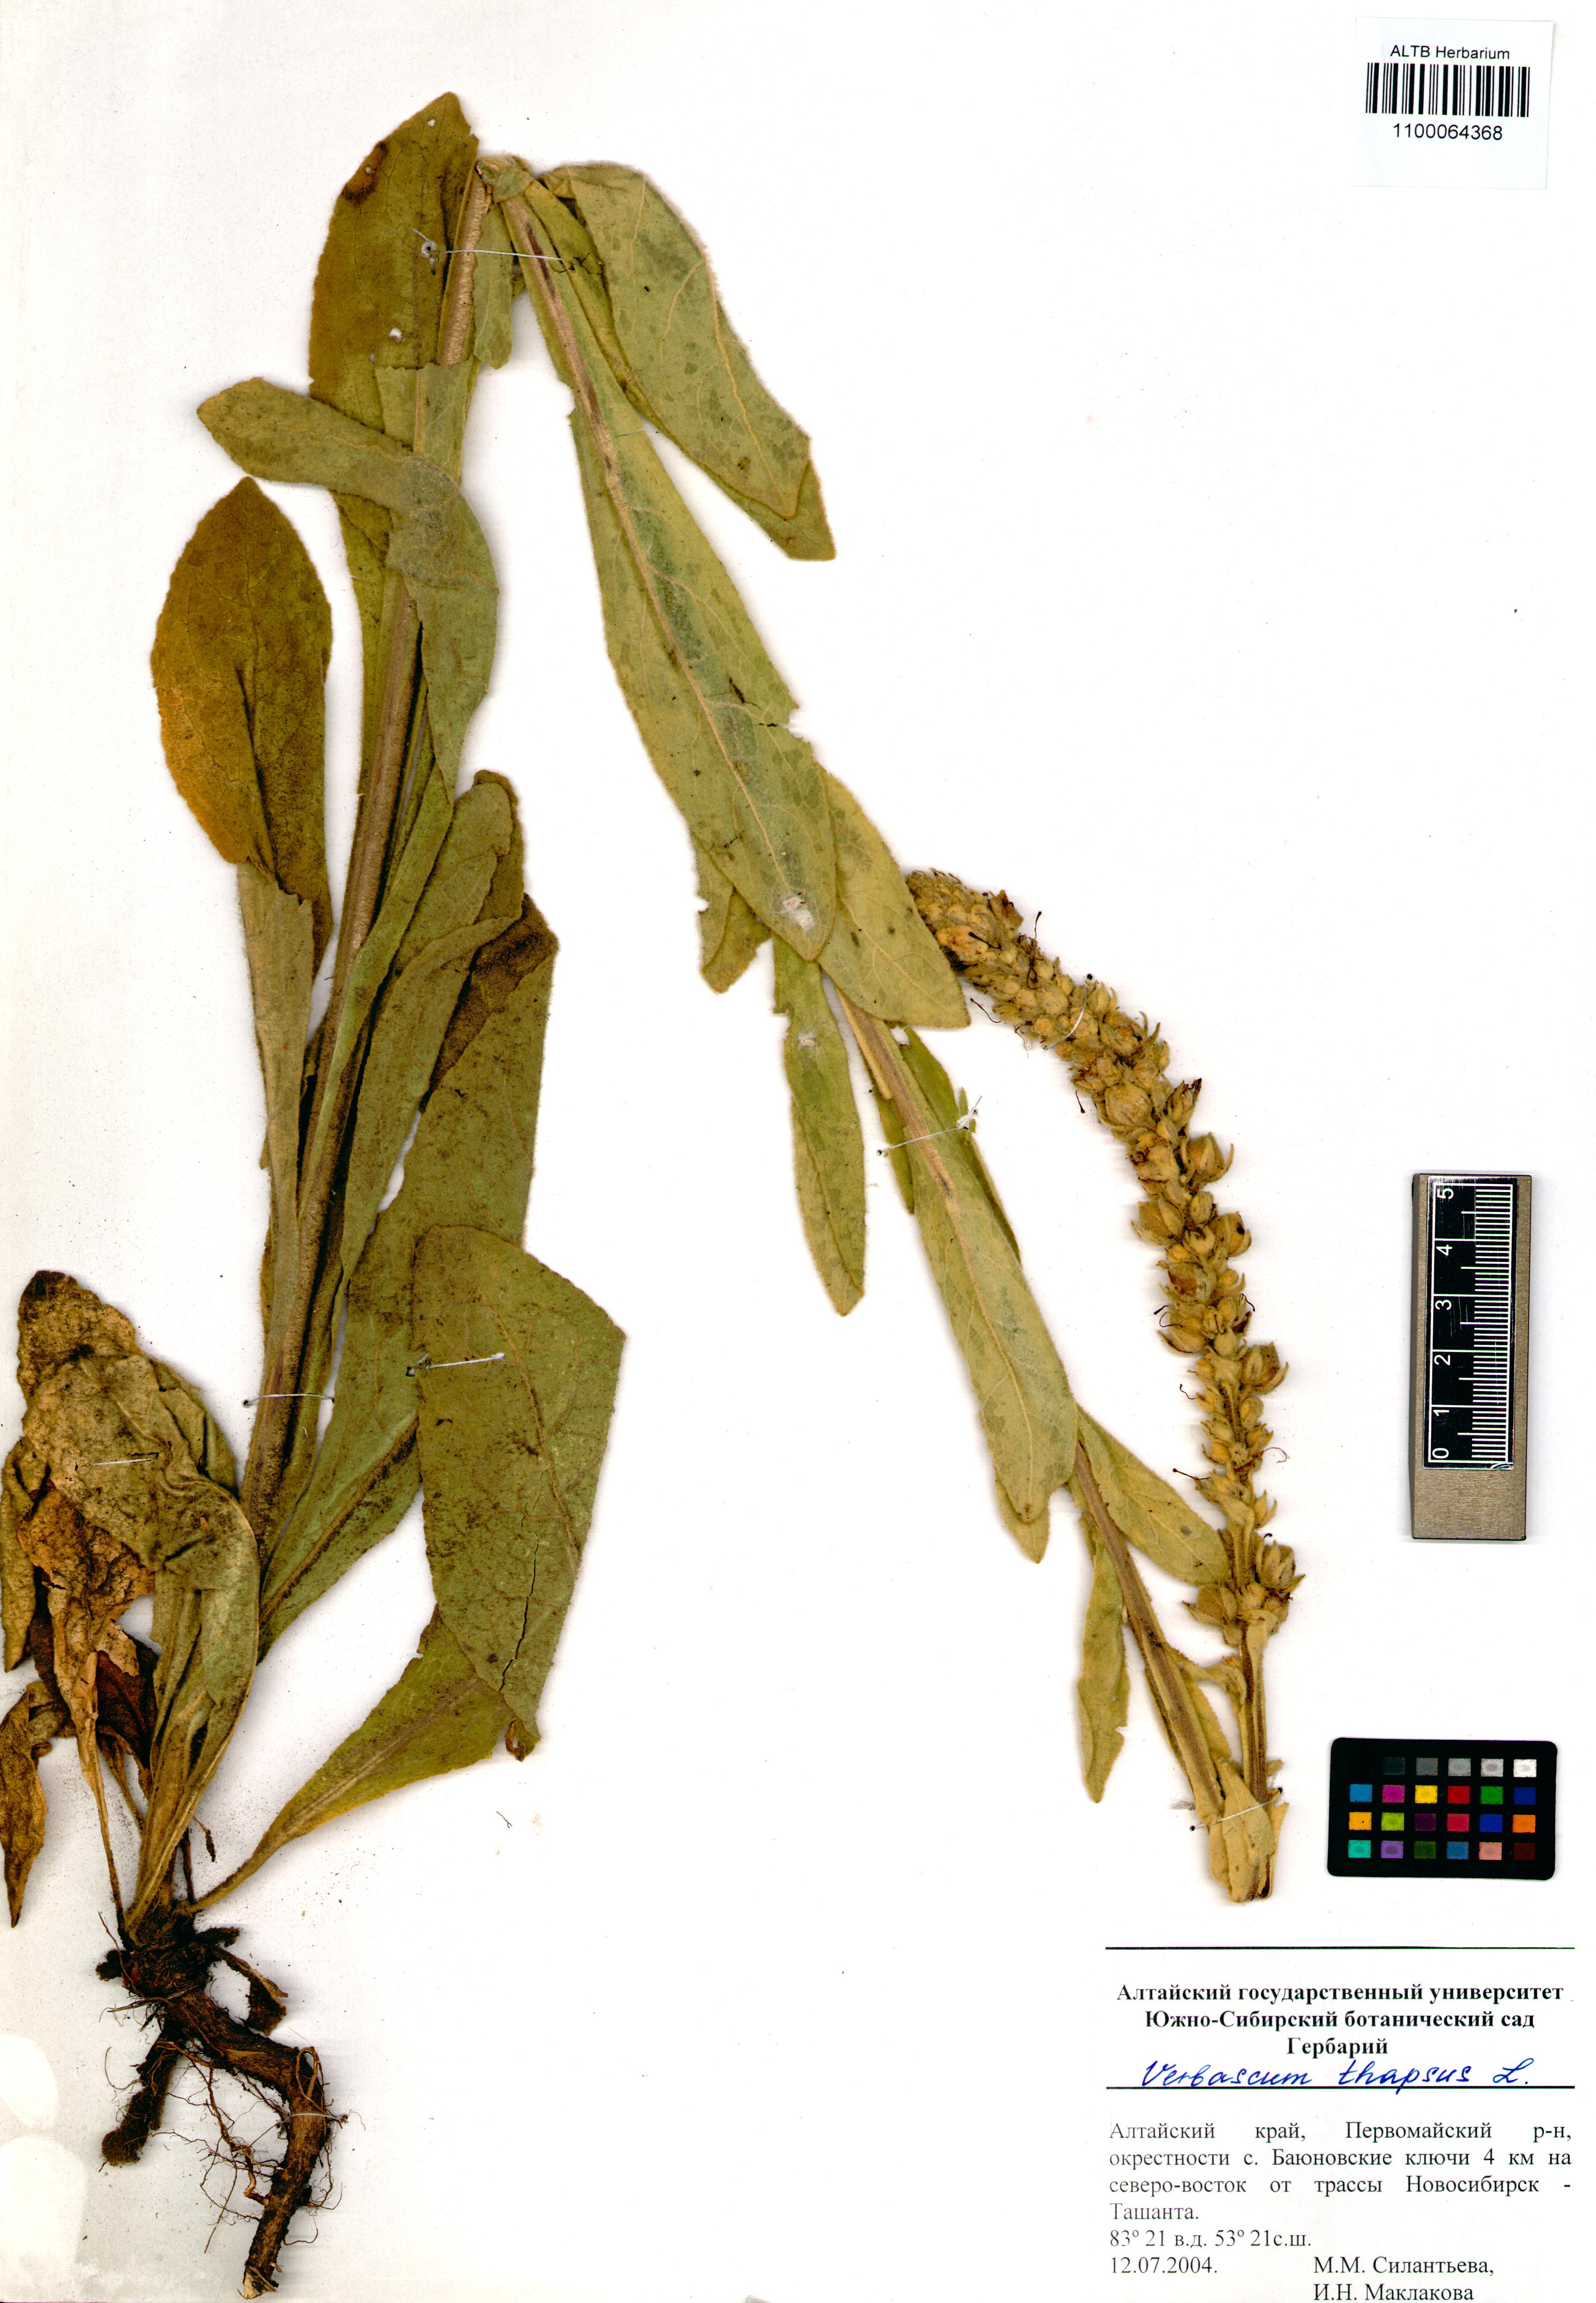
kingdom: Plantae
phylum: Tracheophyta
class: Magnoliopsida
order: Lamiales
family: Scrophulariaceae
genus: Verbascum
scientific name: Verbascum thapsus
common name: Common mullein
